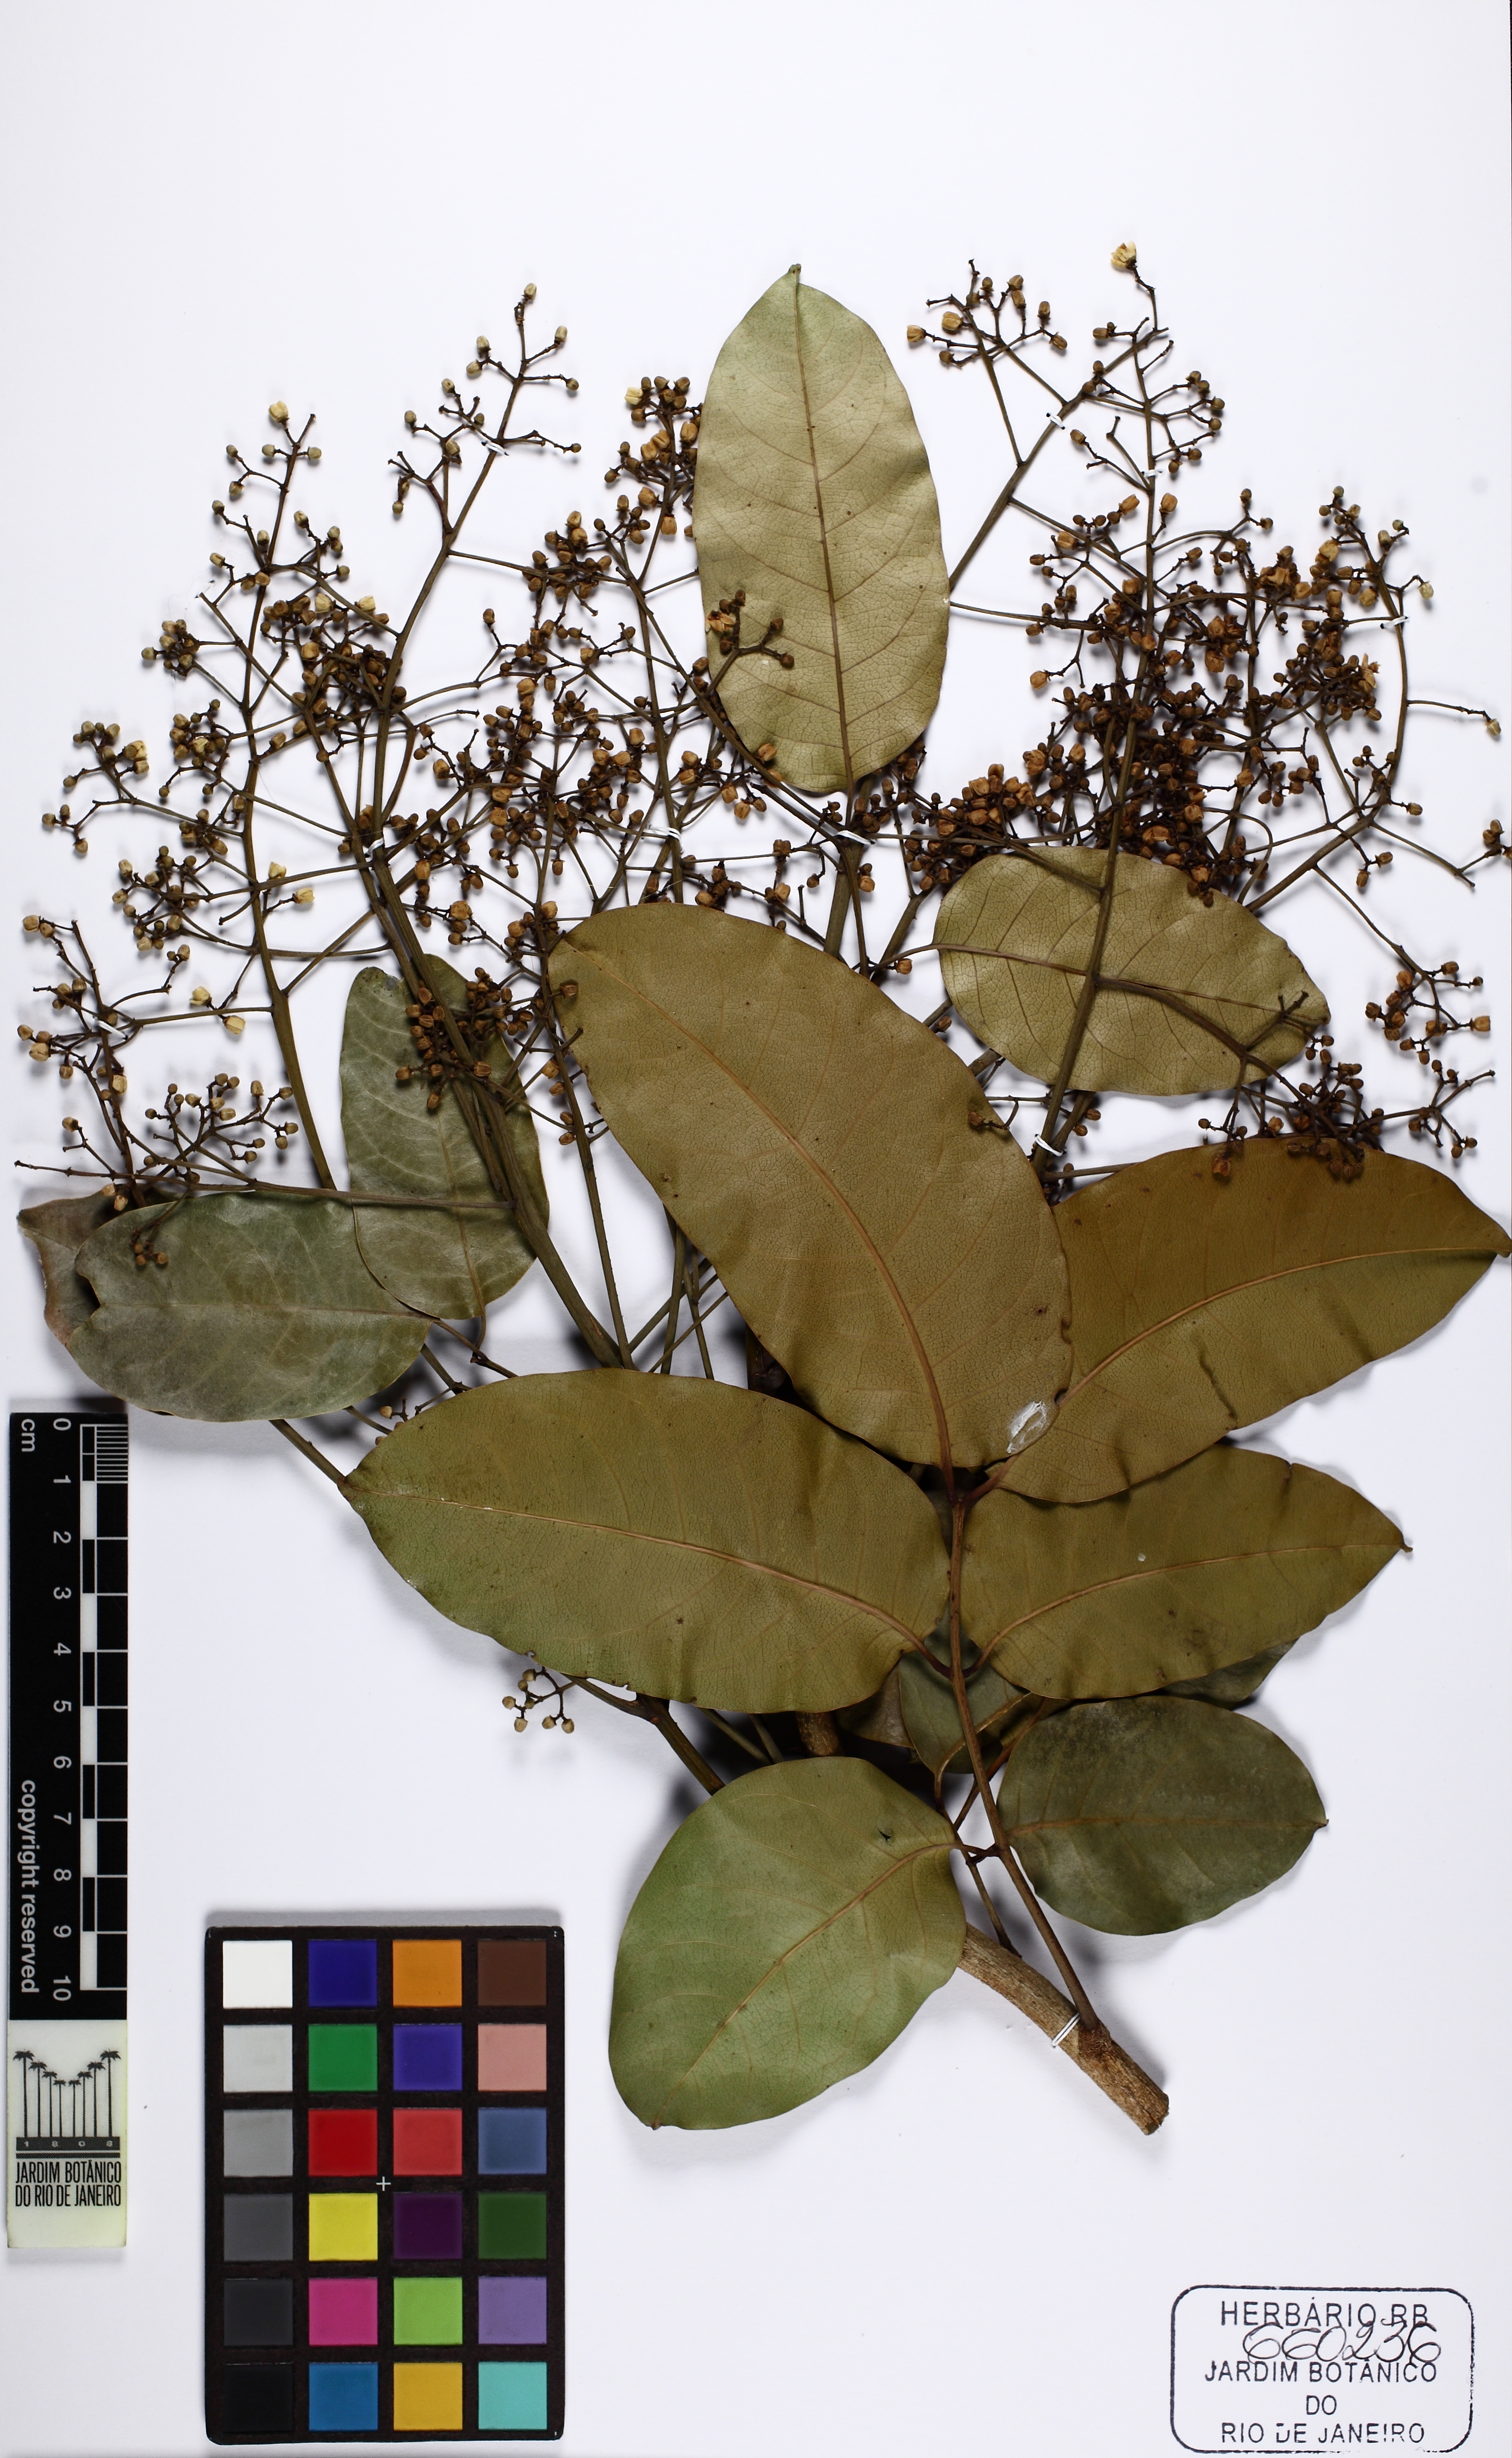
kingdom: Plantae
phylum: Tracheophyta
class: Magnoliopsida
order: Sapindales
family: Meliaceae
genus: Khaya
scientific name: Khaya
